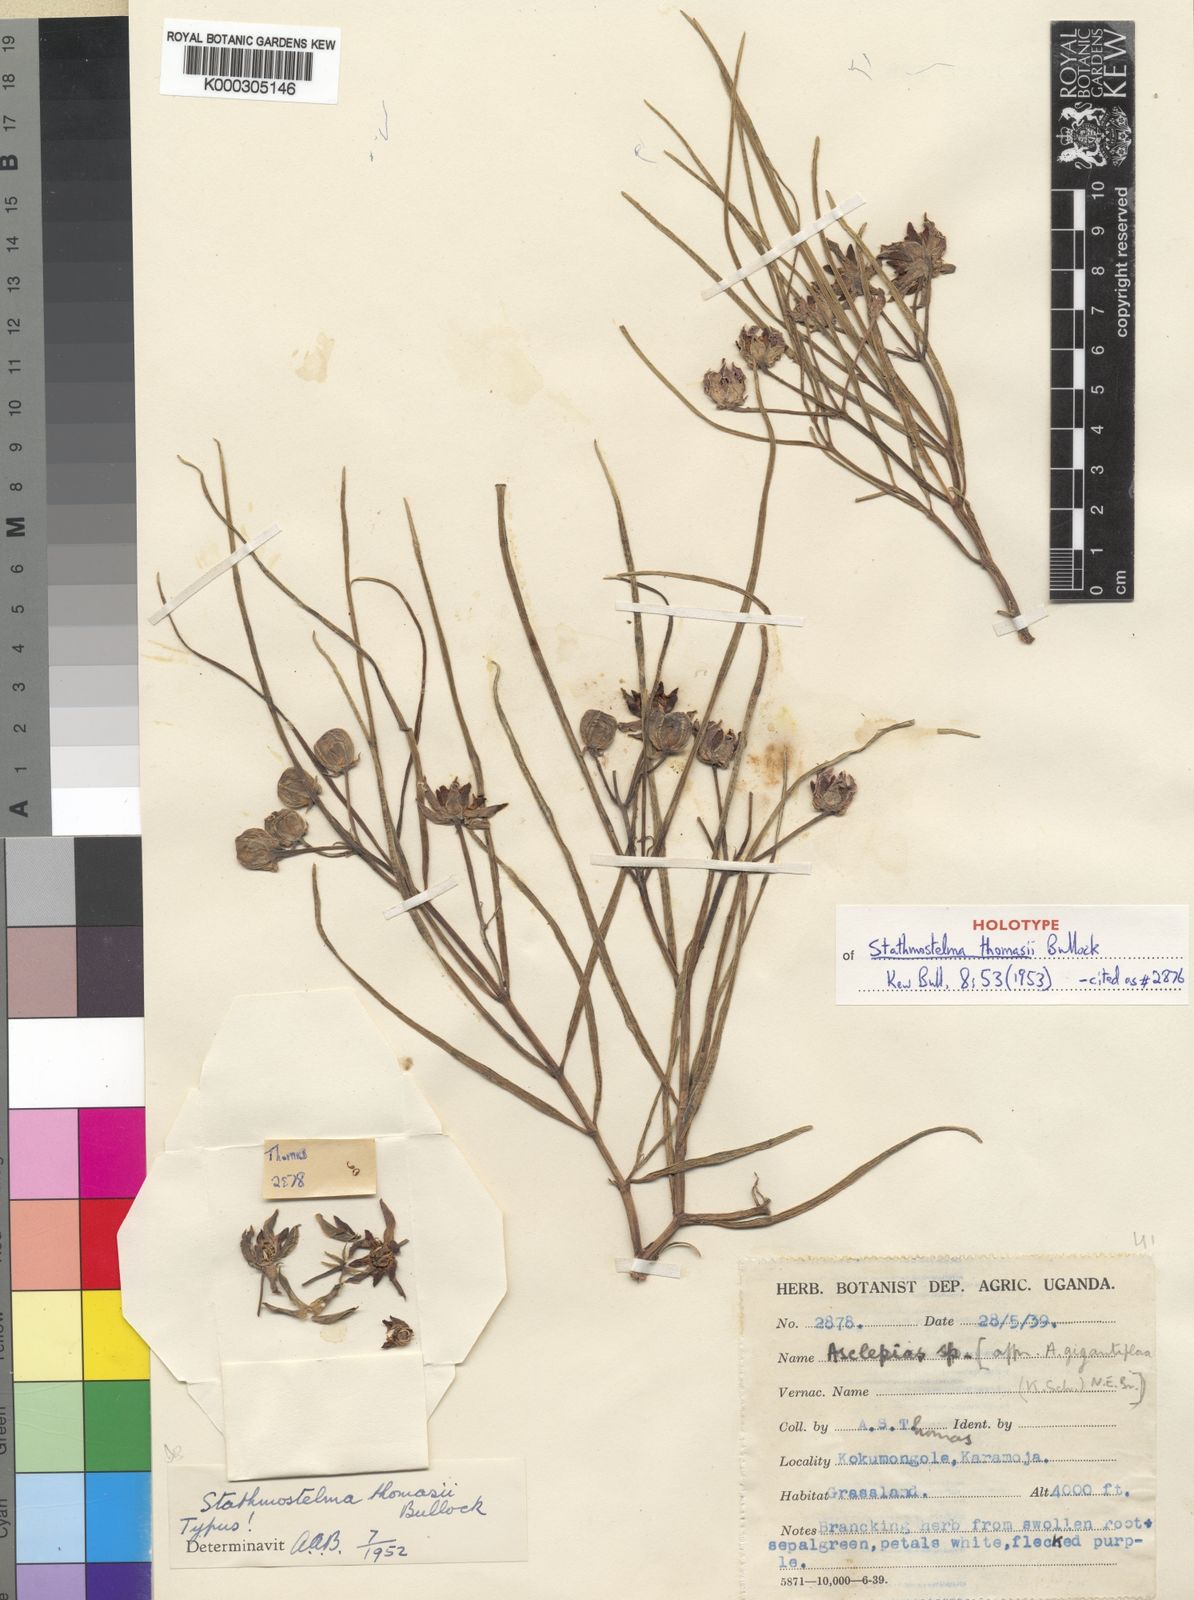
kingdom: Plantae
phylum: Tracheophyta
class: Magnoliopsida
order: Gentianales
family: Apocynaceae
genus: Stathmostelma
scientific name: Stathmostelma angustatum
